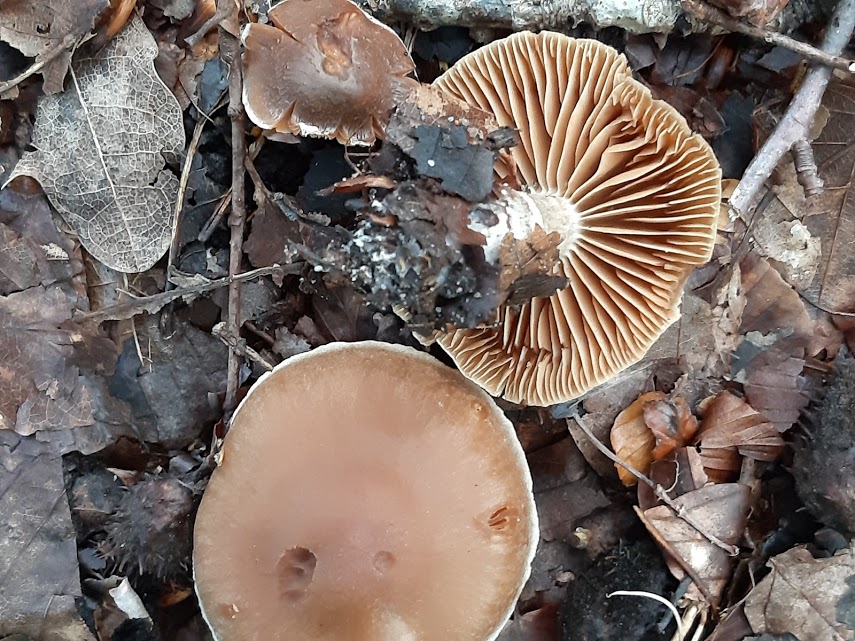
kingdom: Fungi
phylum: Basidiomycota
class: Agaricomycetes
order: Agaricales
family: Cortinariaceae
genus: Cortinarius
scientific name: Cortinarius
